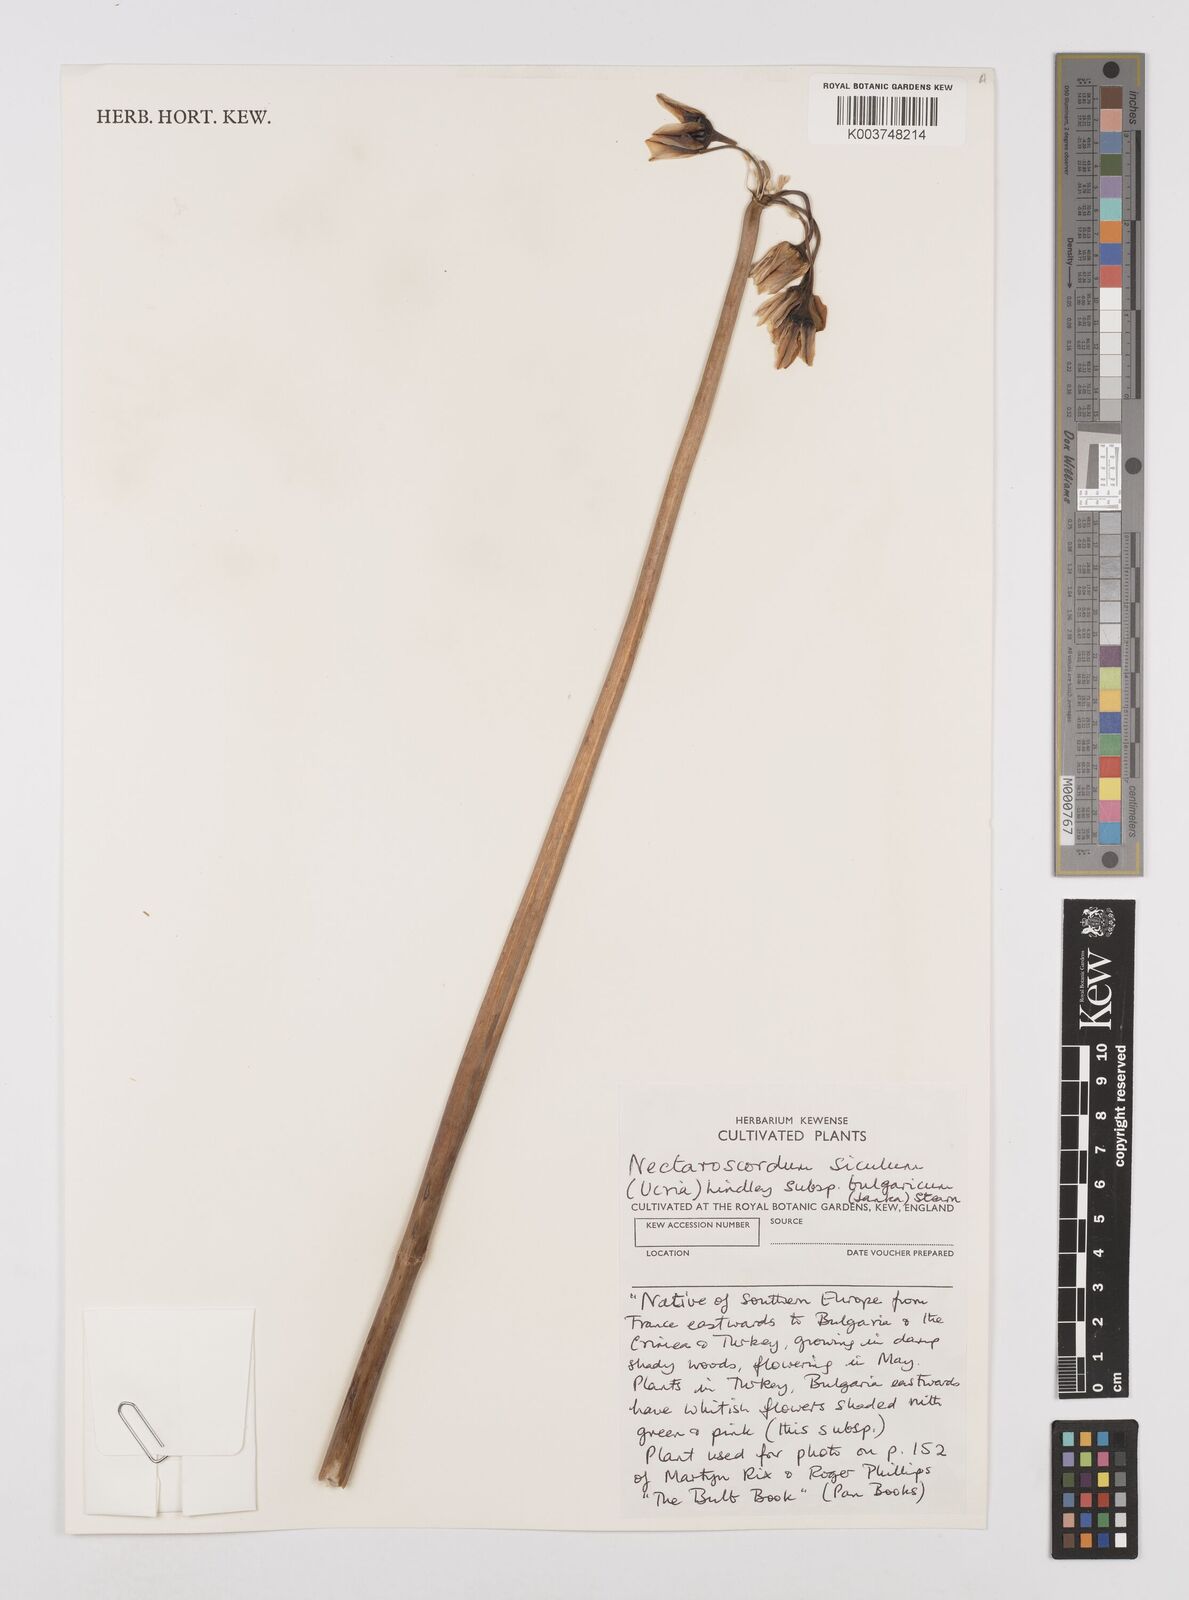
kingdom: Plantae
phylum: Tracheophyta
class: Liliopsida
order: Asparagales
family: Amaryllidaceae
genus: Allium
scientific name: Allium siculum
